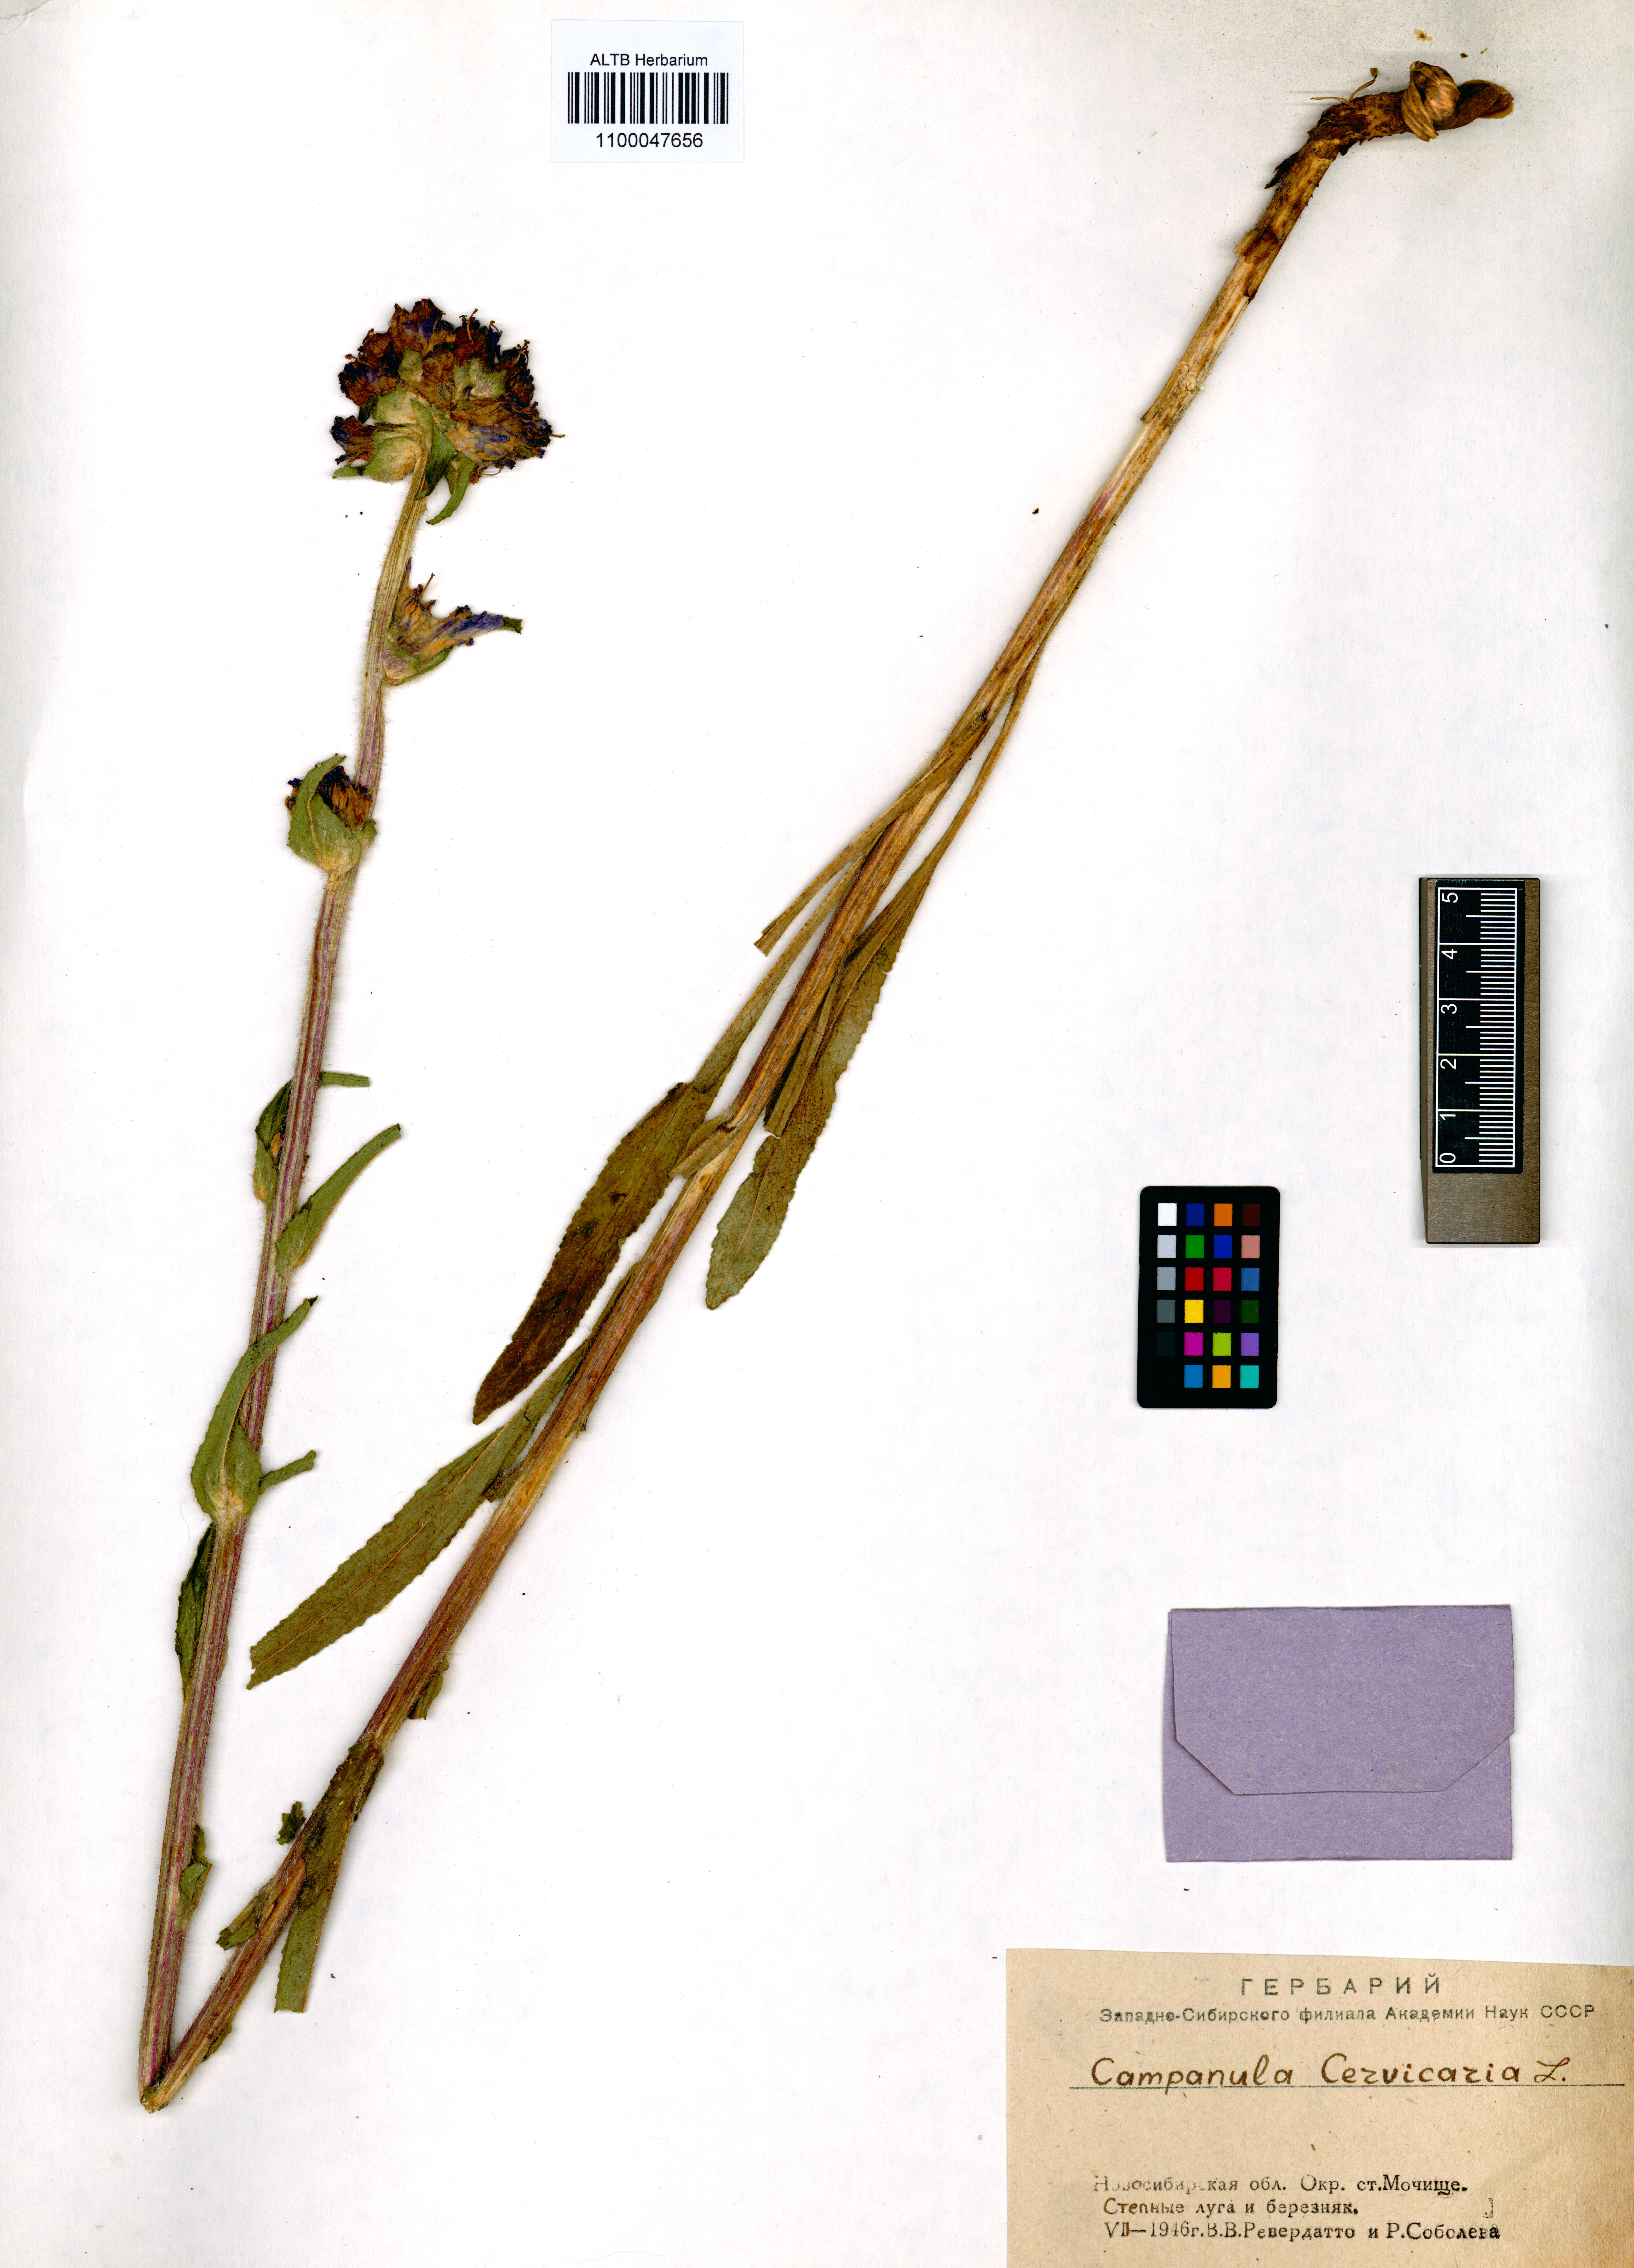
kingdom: Plantae
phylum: Tracheophyta
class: Magnoliopsida
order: Asterales
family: Campanulaceae
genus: Campanula
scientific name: Campanula cervicaria
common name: Bristly bellflower
